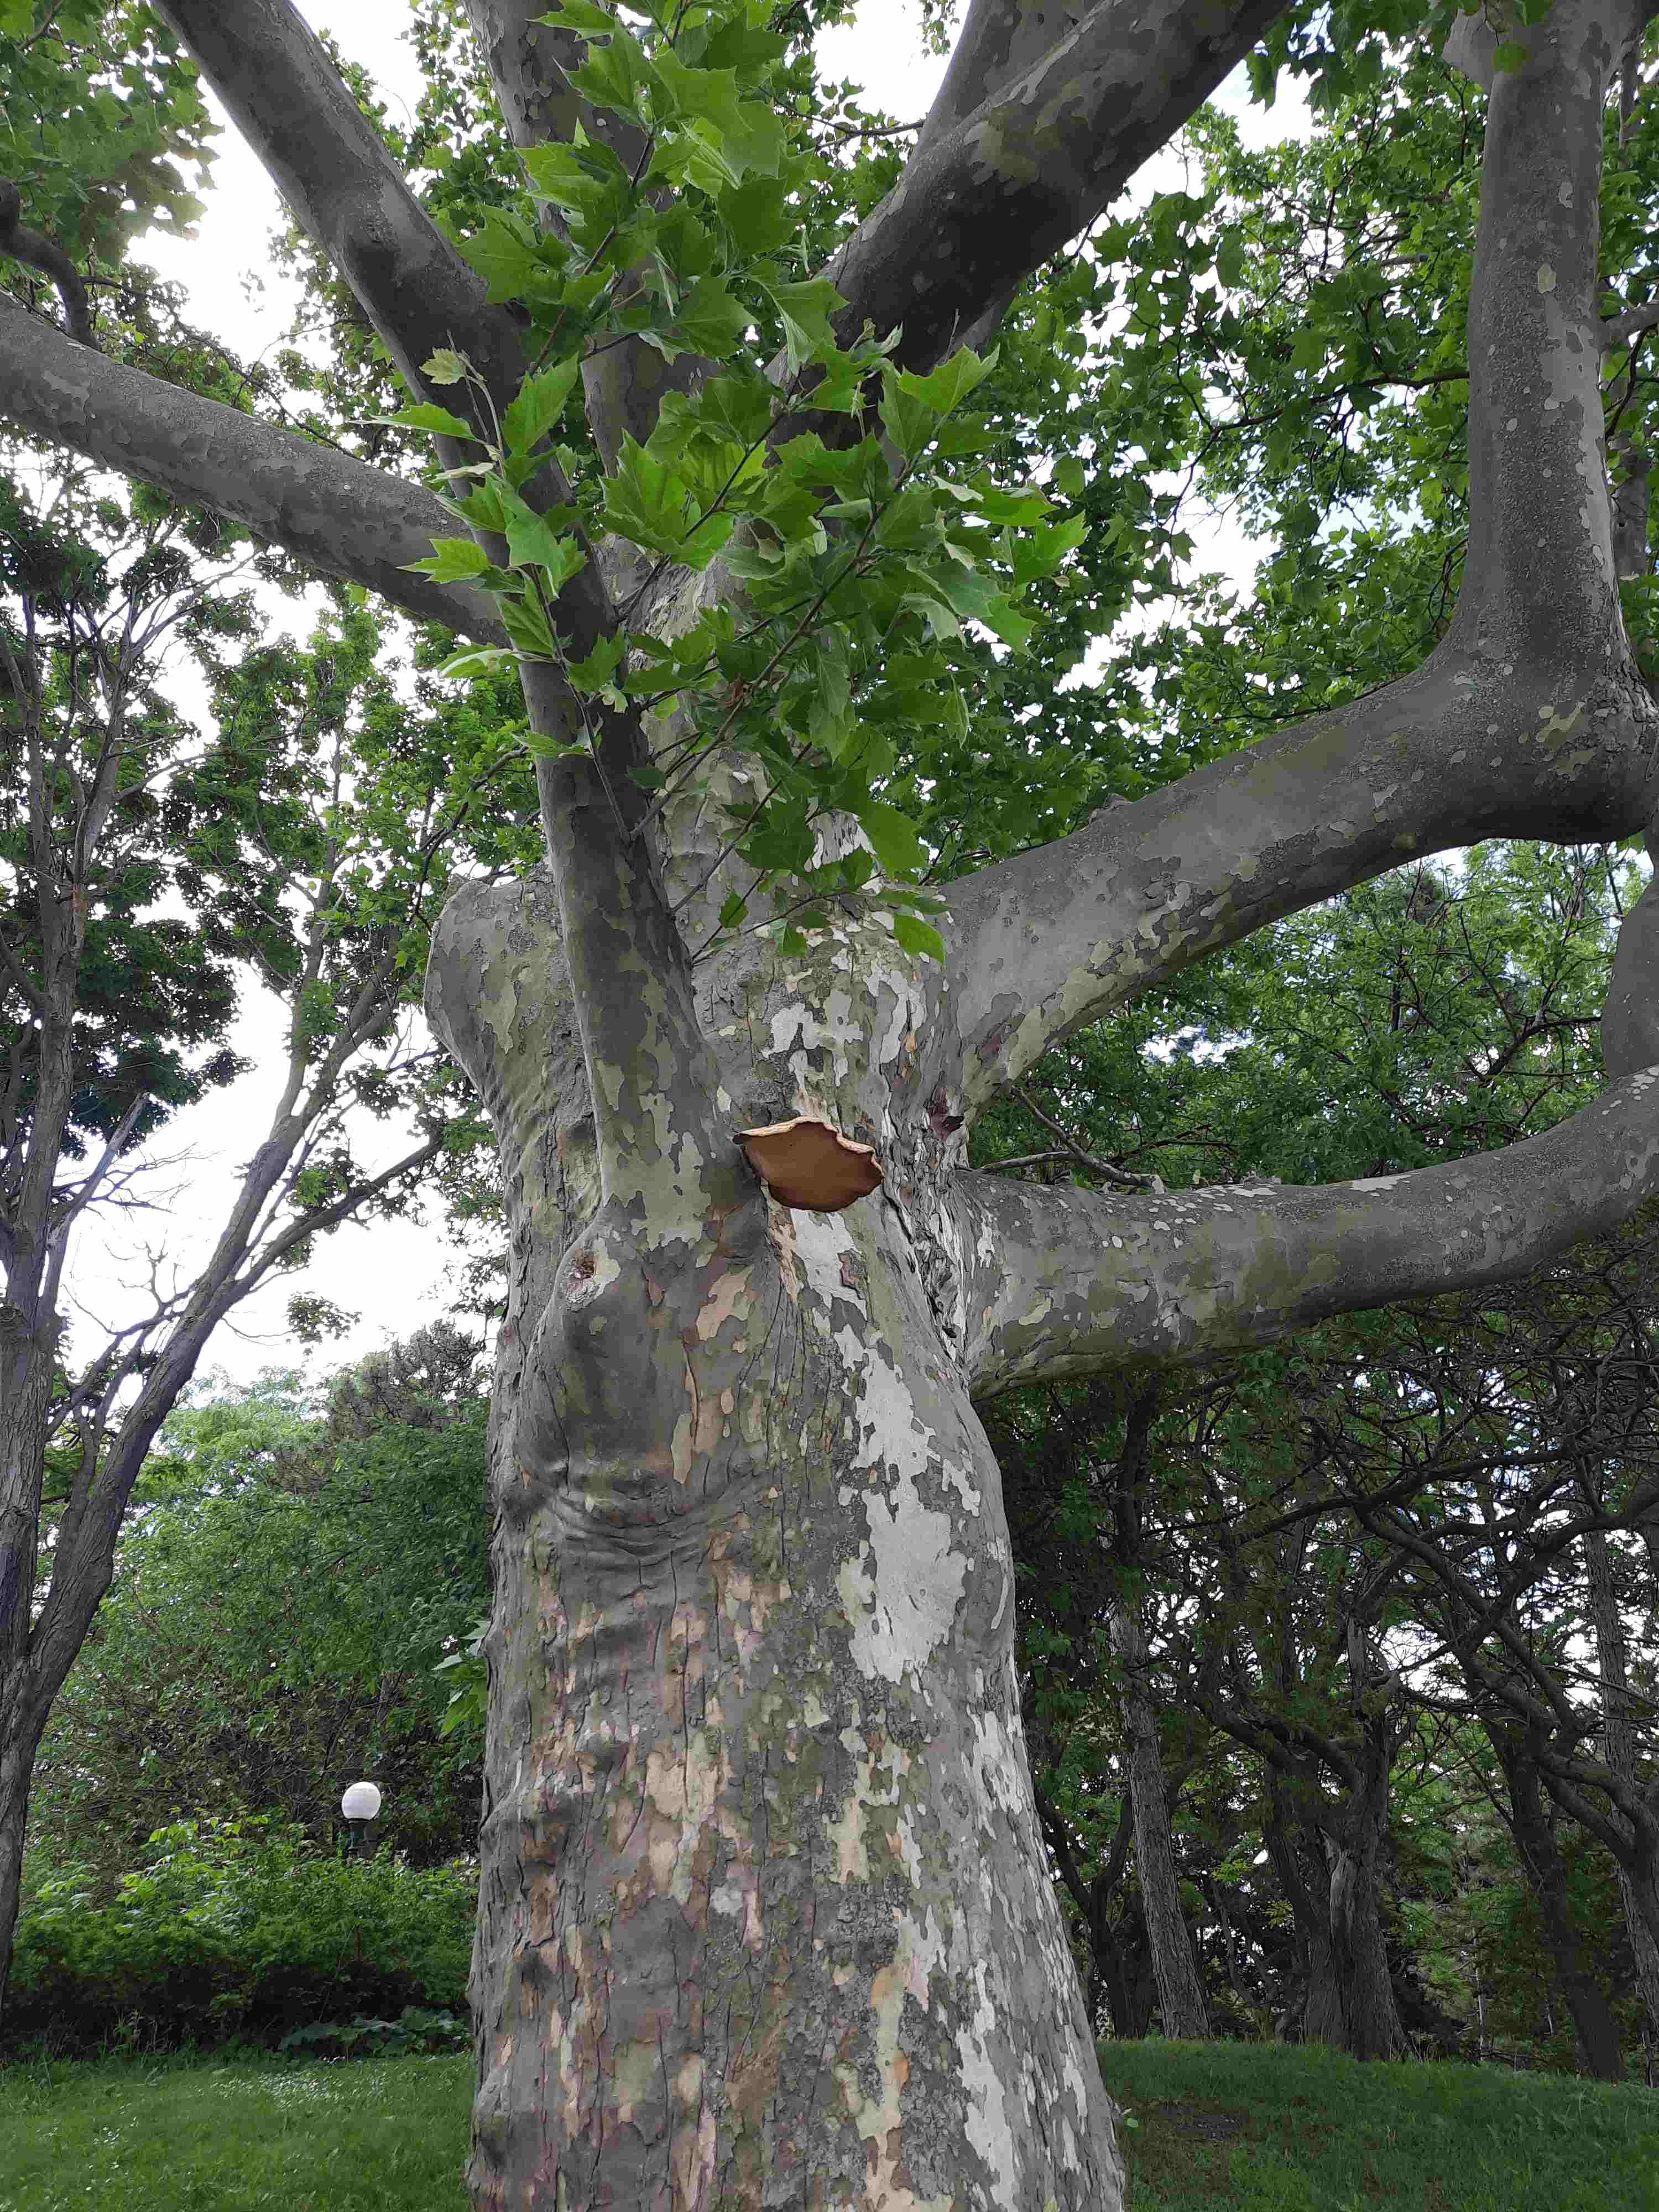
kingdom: Fungi
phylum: Basidiomycota
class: Agaricomycetes
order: Polyporales
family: Polyporaceae
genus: Cerioporus
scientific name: Cerioporus squamosus
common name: skællet stilkporesvamp
